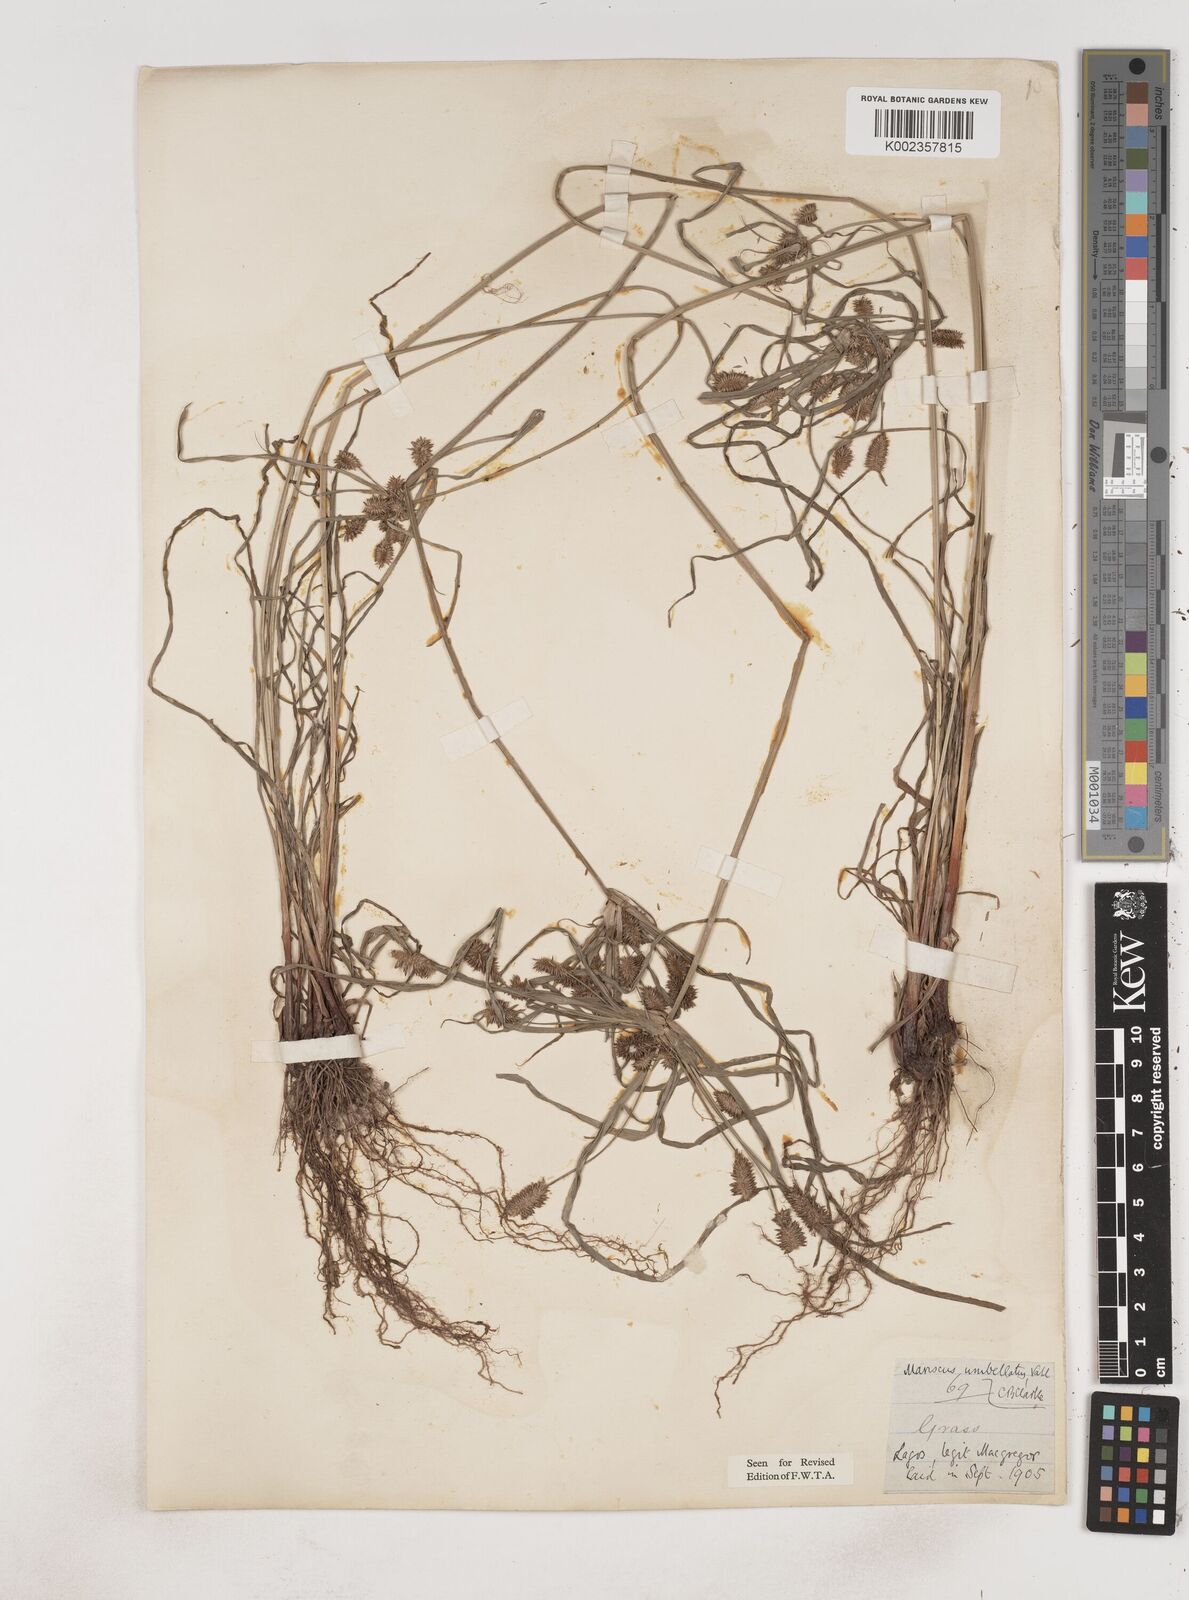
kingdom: Plantae
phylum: Tracheophyta
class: Liliopsida
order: Poales
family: Cyperaceae
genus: Cyperus
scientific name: Cyperus sublimis
